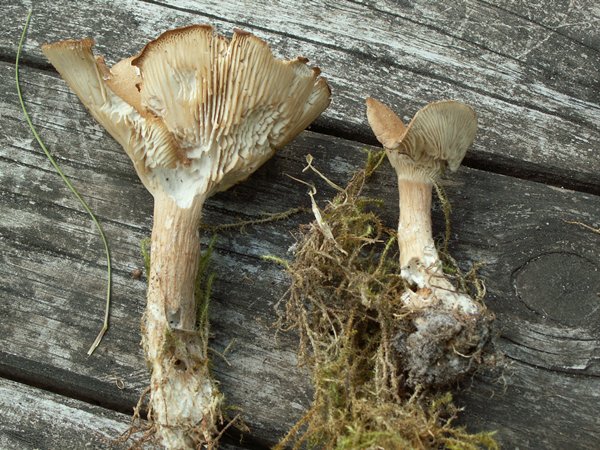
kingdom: Fungi
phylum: Basidiomycota
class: Agaricomycetes
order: Agaricales
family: Tricholomataceae
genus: Infundibulicybe
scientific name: Infundibulicybe squamulosa
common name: småskællet tragthat
